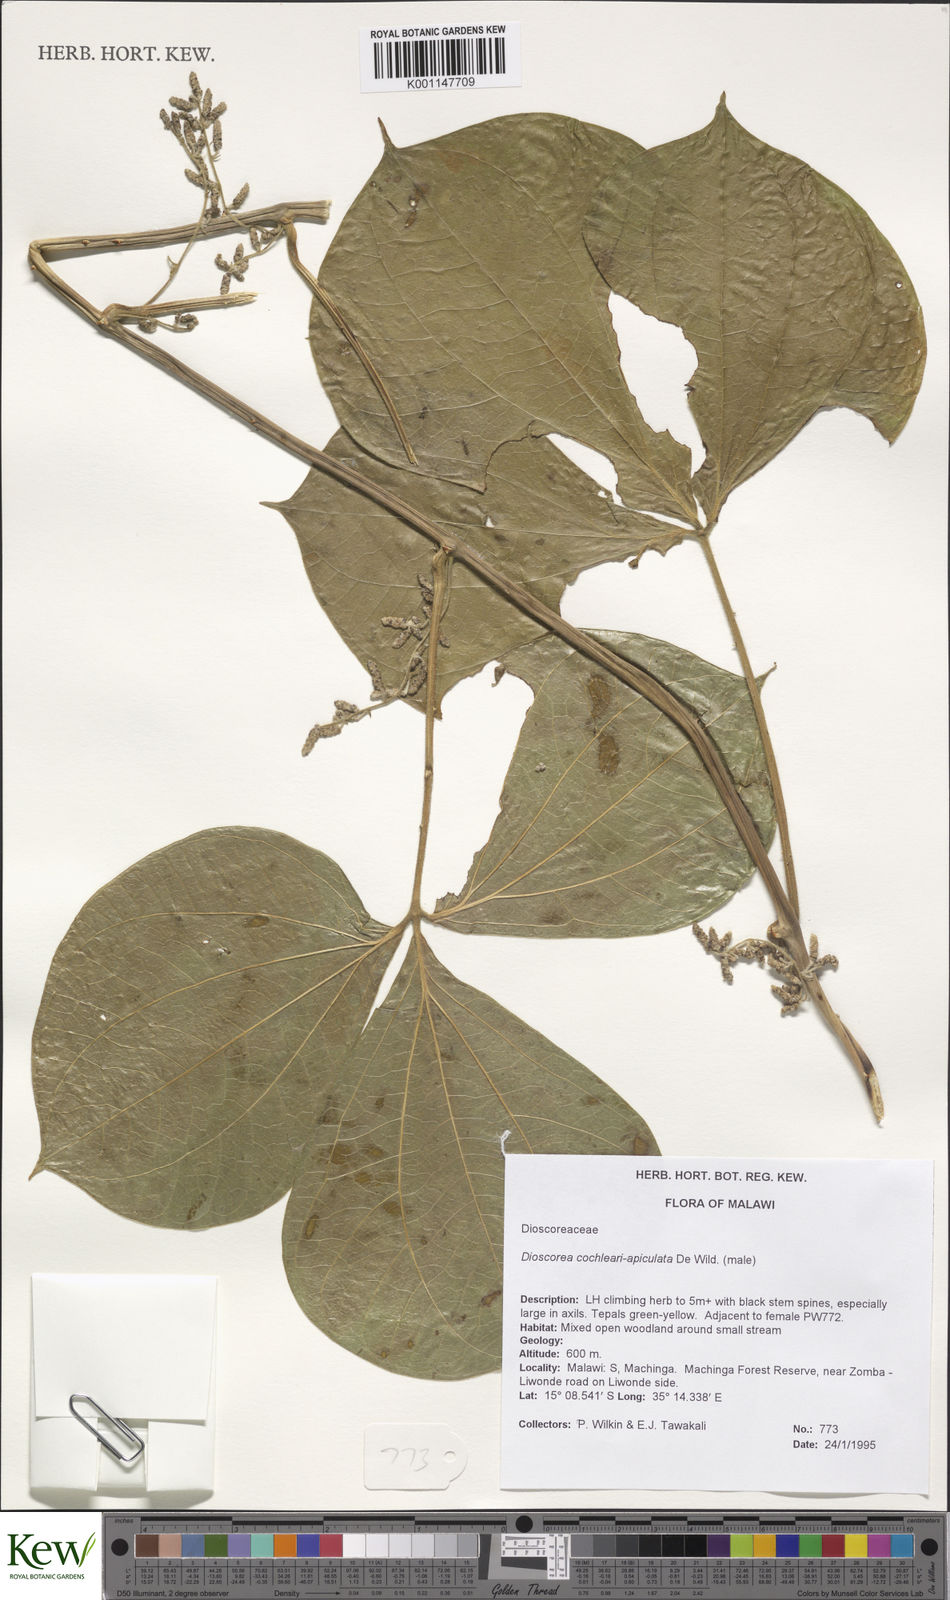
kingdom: Plantae
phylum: Tracheophyta
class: Liliopsida
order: Dioscoreales
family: Dioscoreaceae
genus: Dioscorea
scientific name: Dioscorea cochleariapiculata
